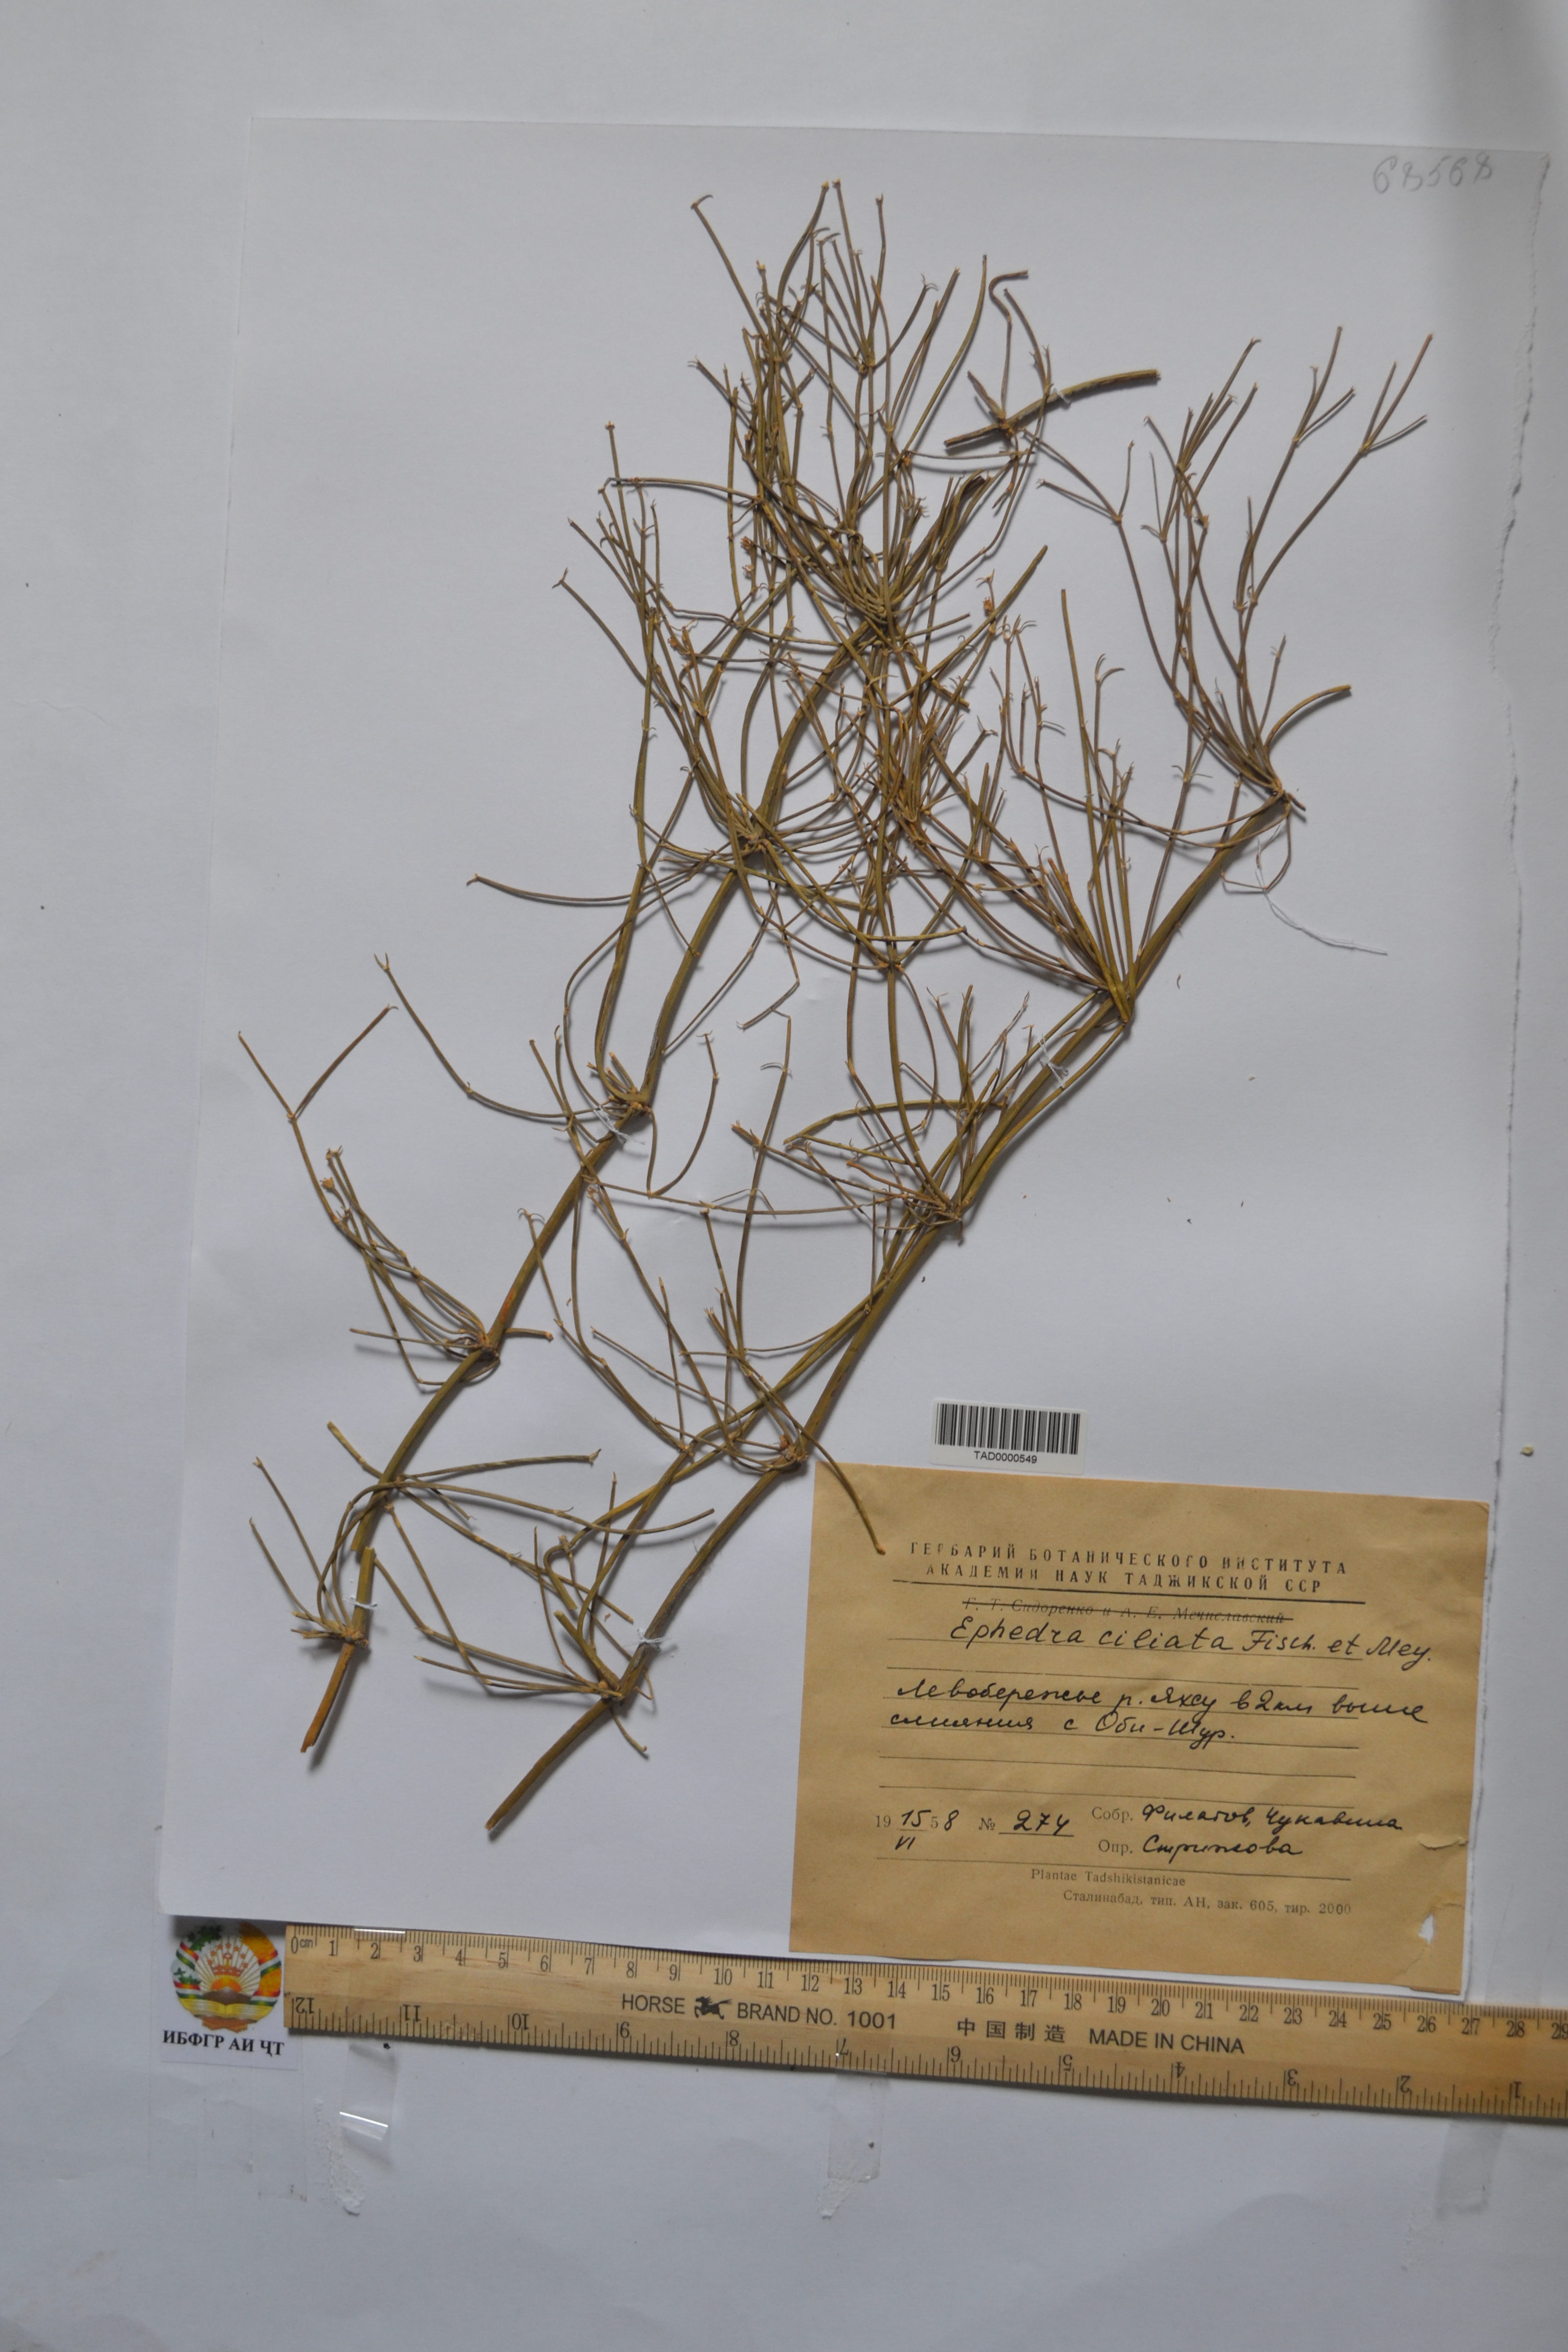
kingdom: Plantae
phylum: Tracheophyta
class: Gnetopsida
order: Ephedrales
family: Ephedraceae
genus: Ephedra
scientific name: Ephedra ciliata
